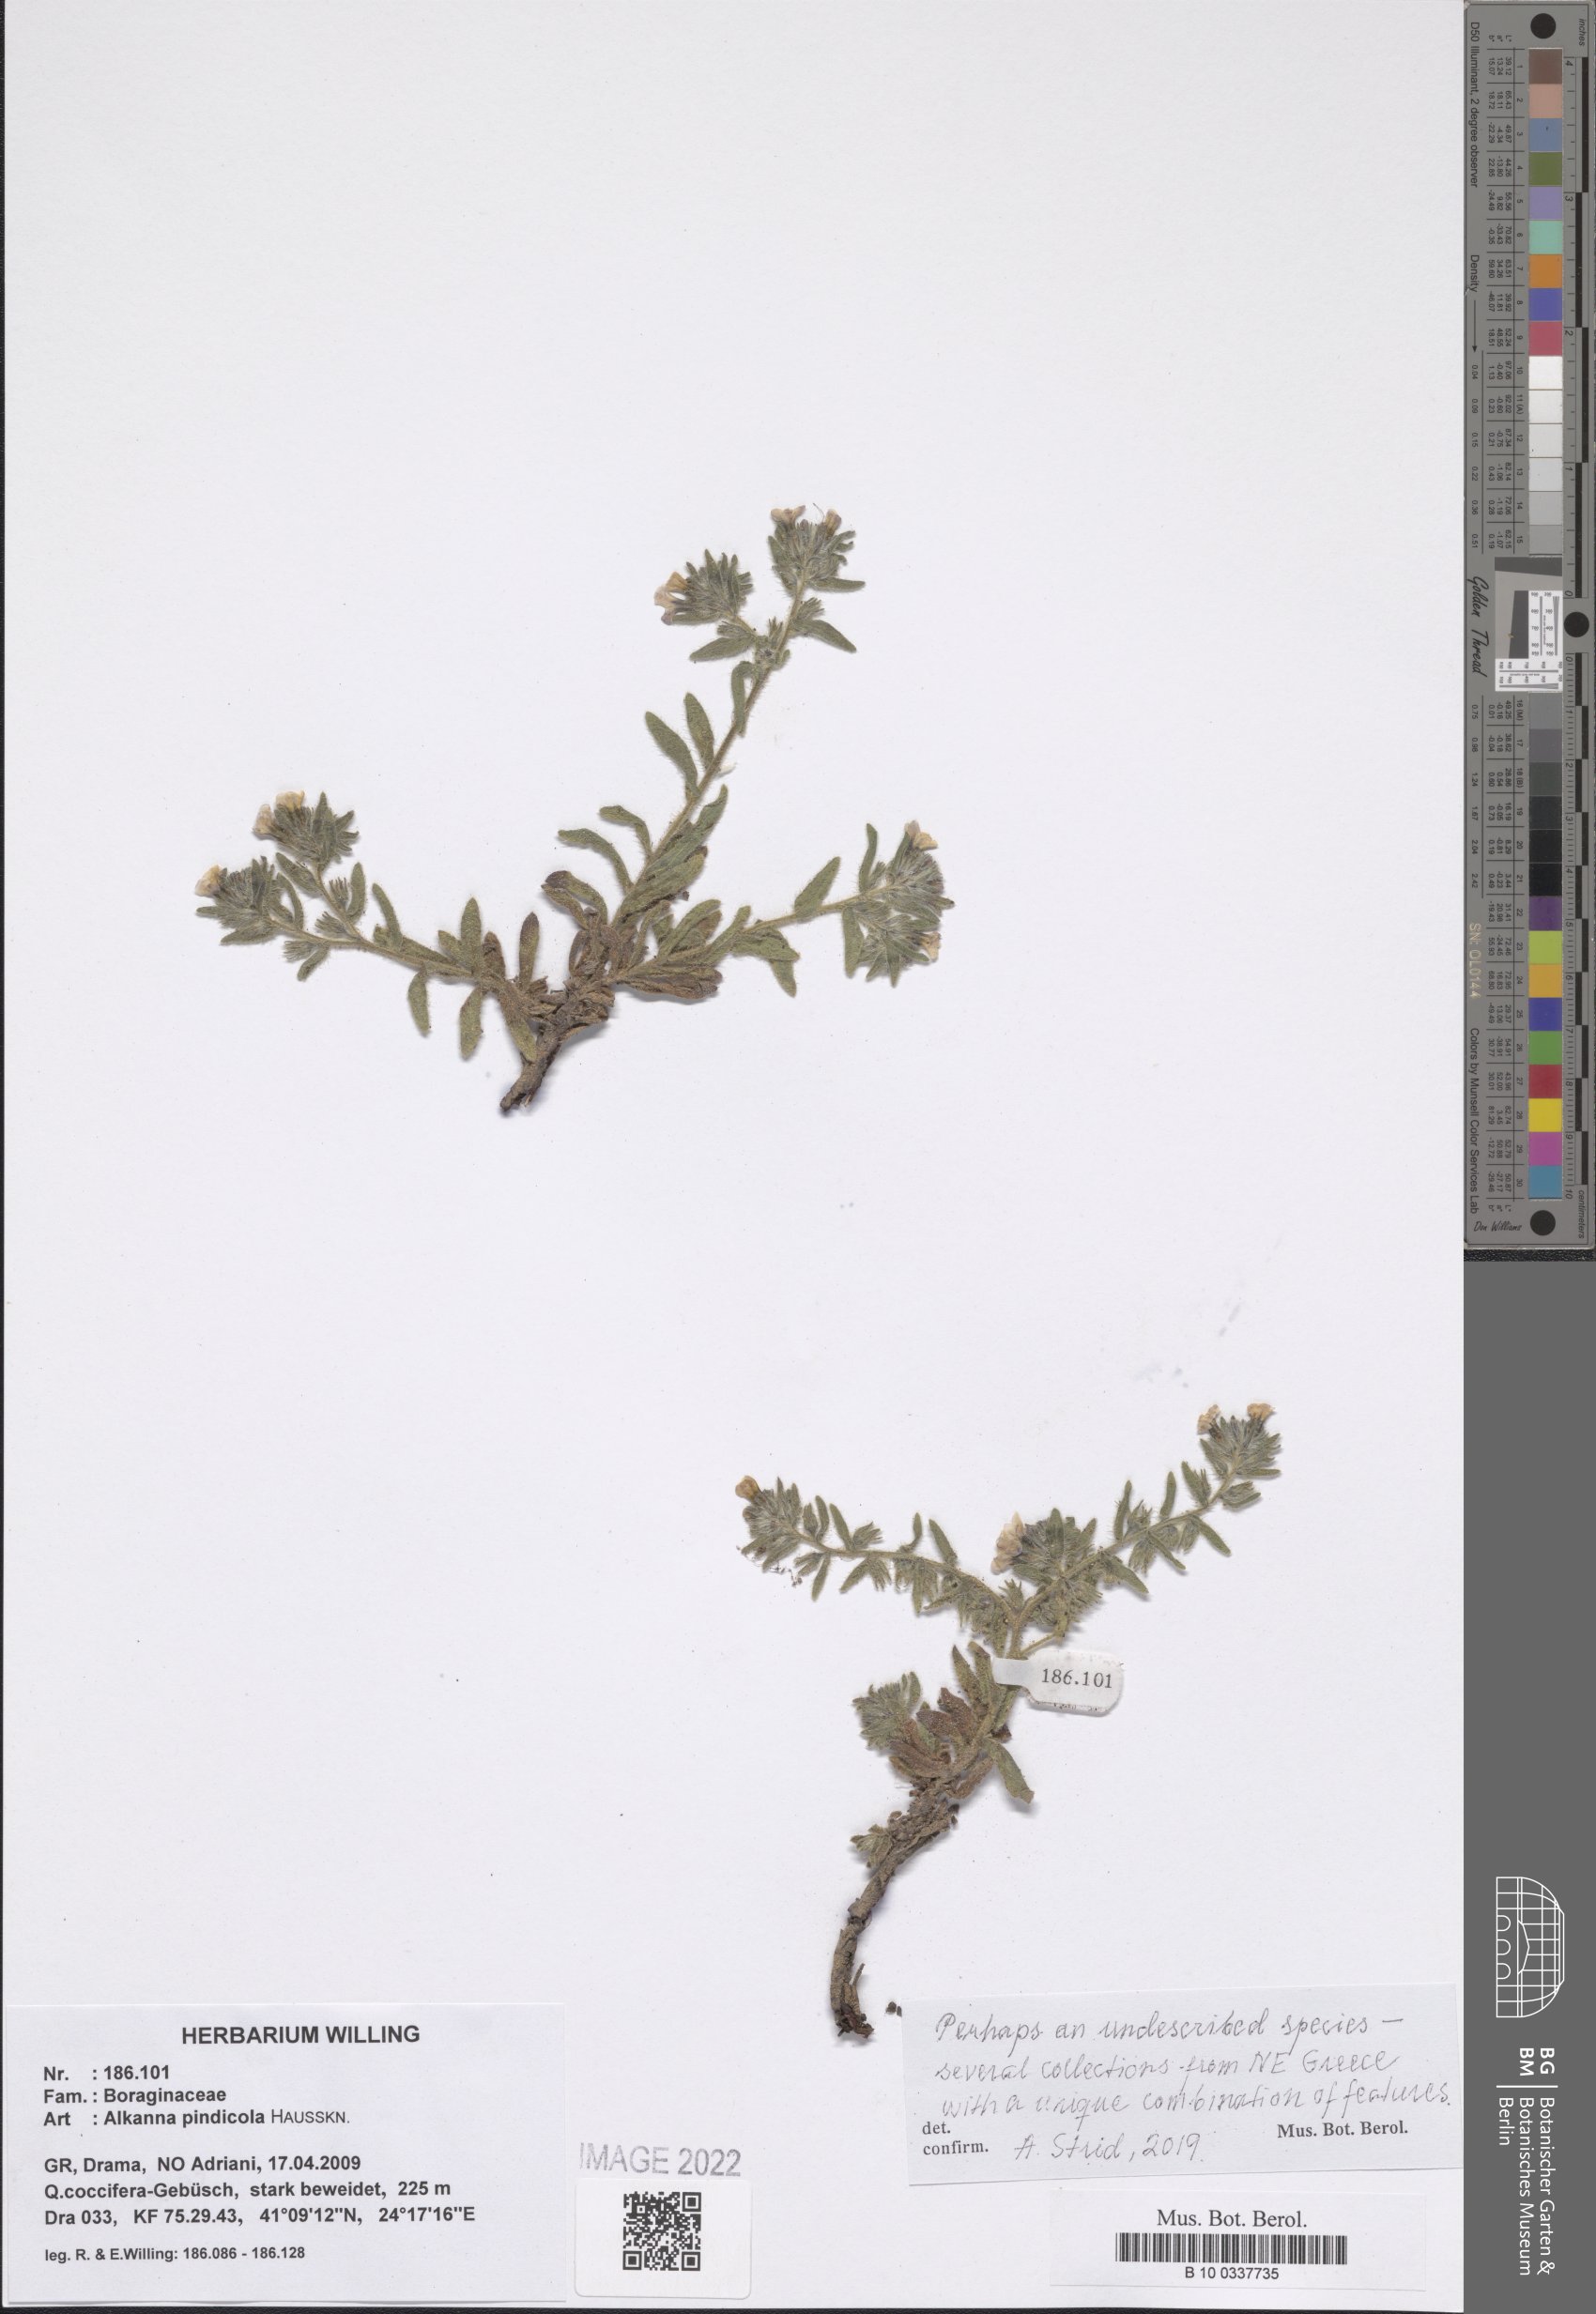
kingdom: Plantae
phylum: Tracheophyta
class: Magnoliopsida
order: Boraginales
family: Boraginaceae
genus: Alkanna
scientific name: Alkanna pindicola
